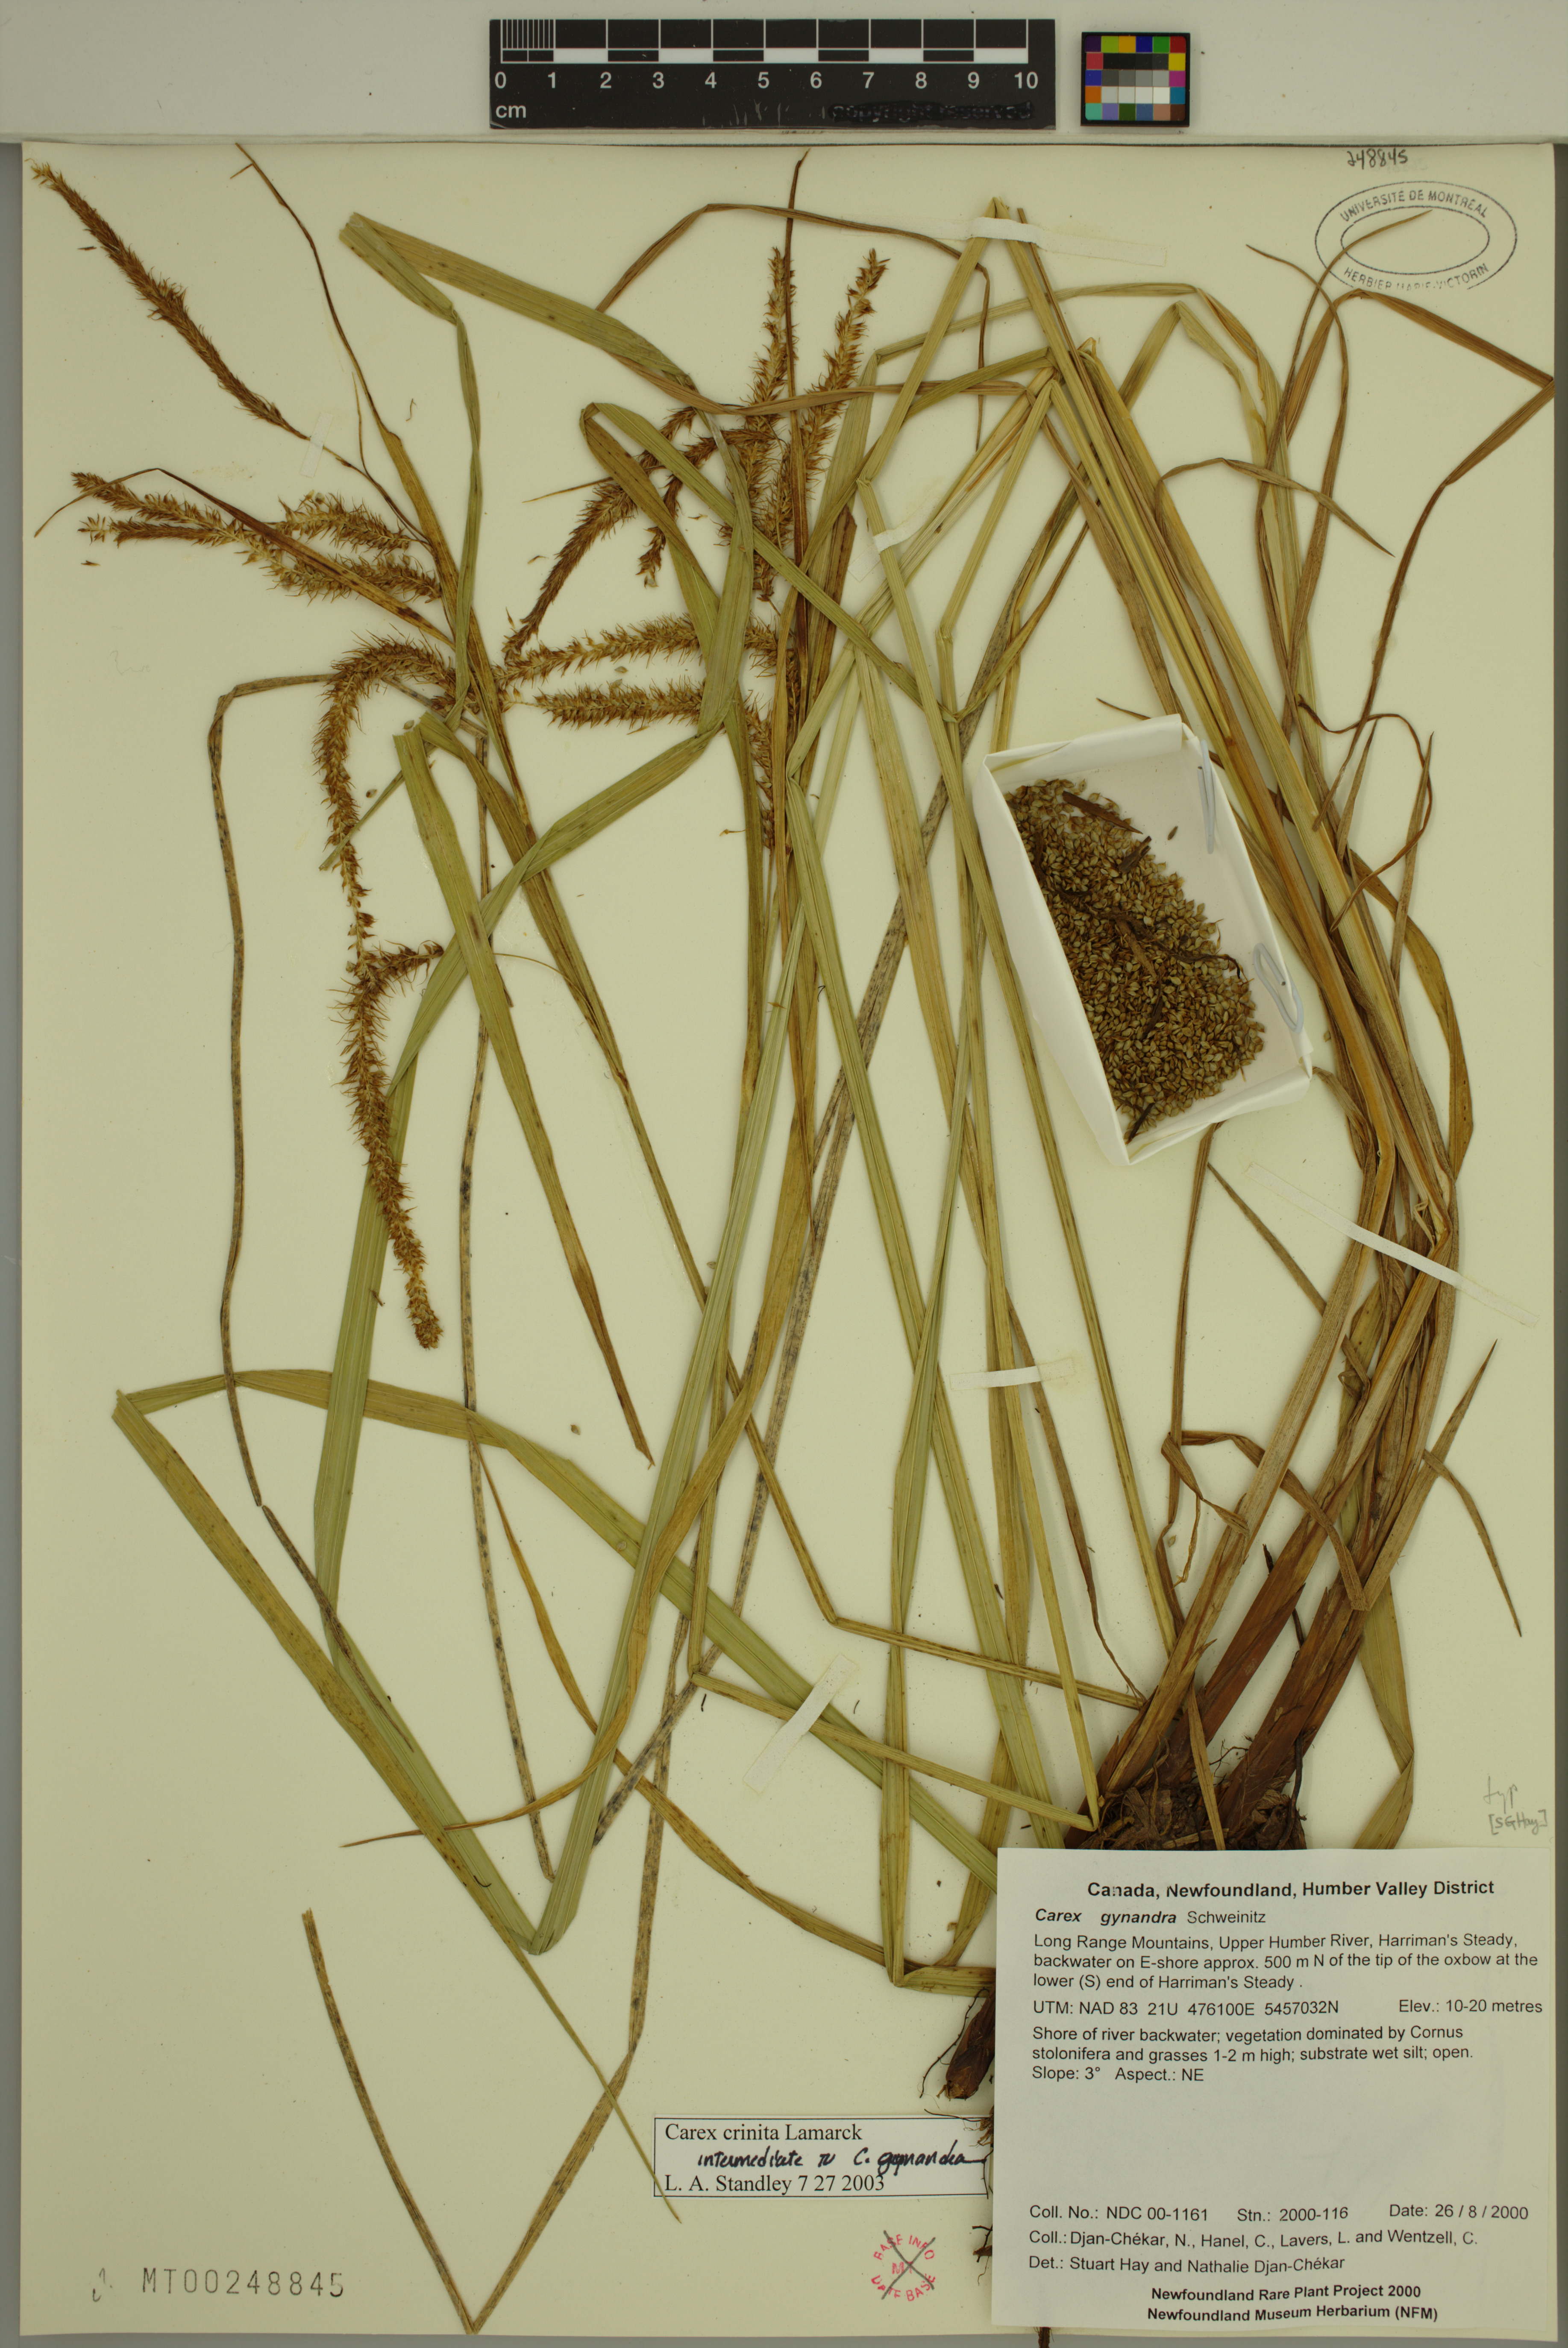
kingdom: Plantae
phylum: Tracheophyta
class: Liliopsida
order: Poales
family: Cyperaceae
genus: Carex
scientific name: Carex crinita
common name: Fringed sedge
